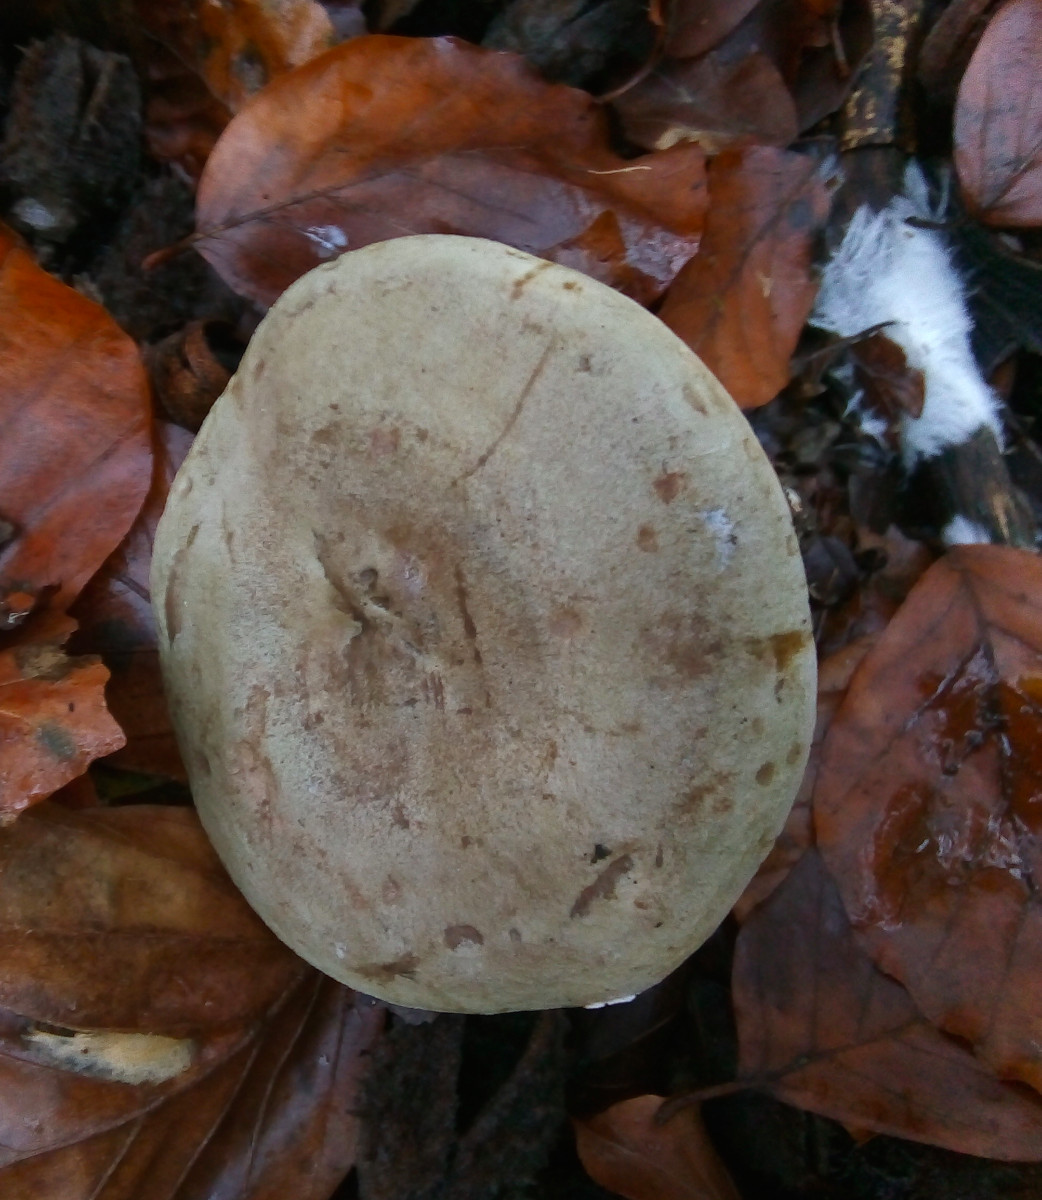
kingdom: Fungi
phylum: Basidiomycota
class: Agaricomycetes
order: Russulales
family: Russulaceae
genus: Lactarius
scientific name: Lactarius blennius
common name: dråbeplettet mælkehat
